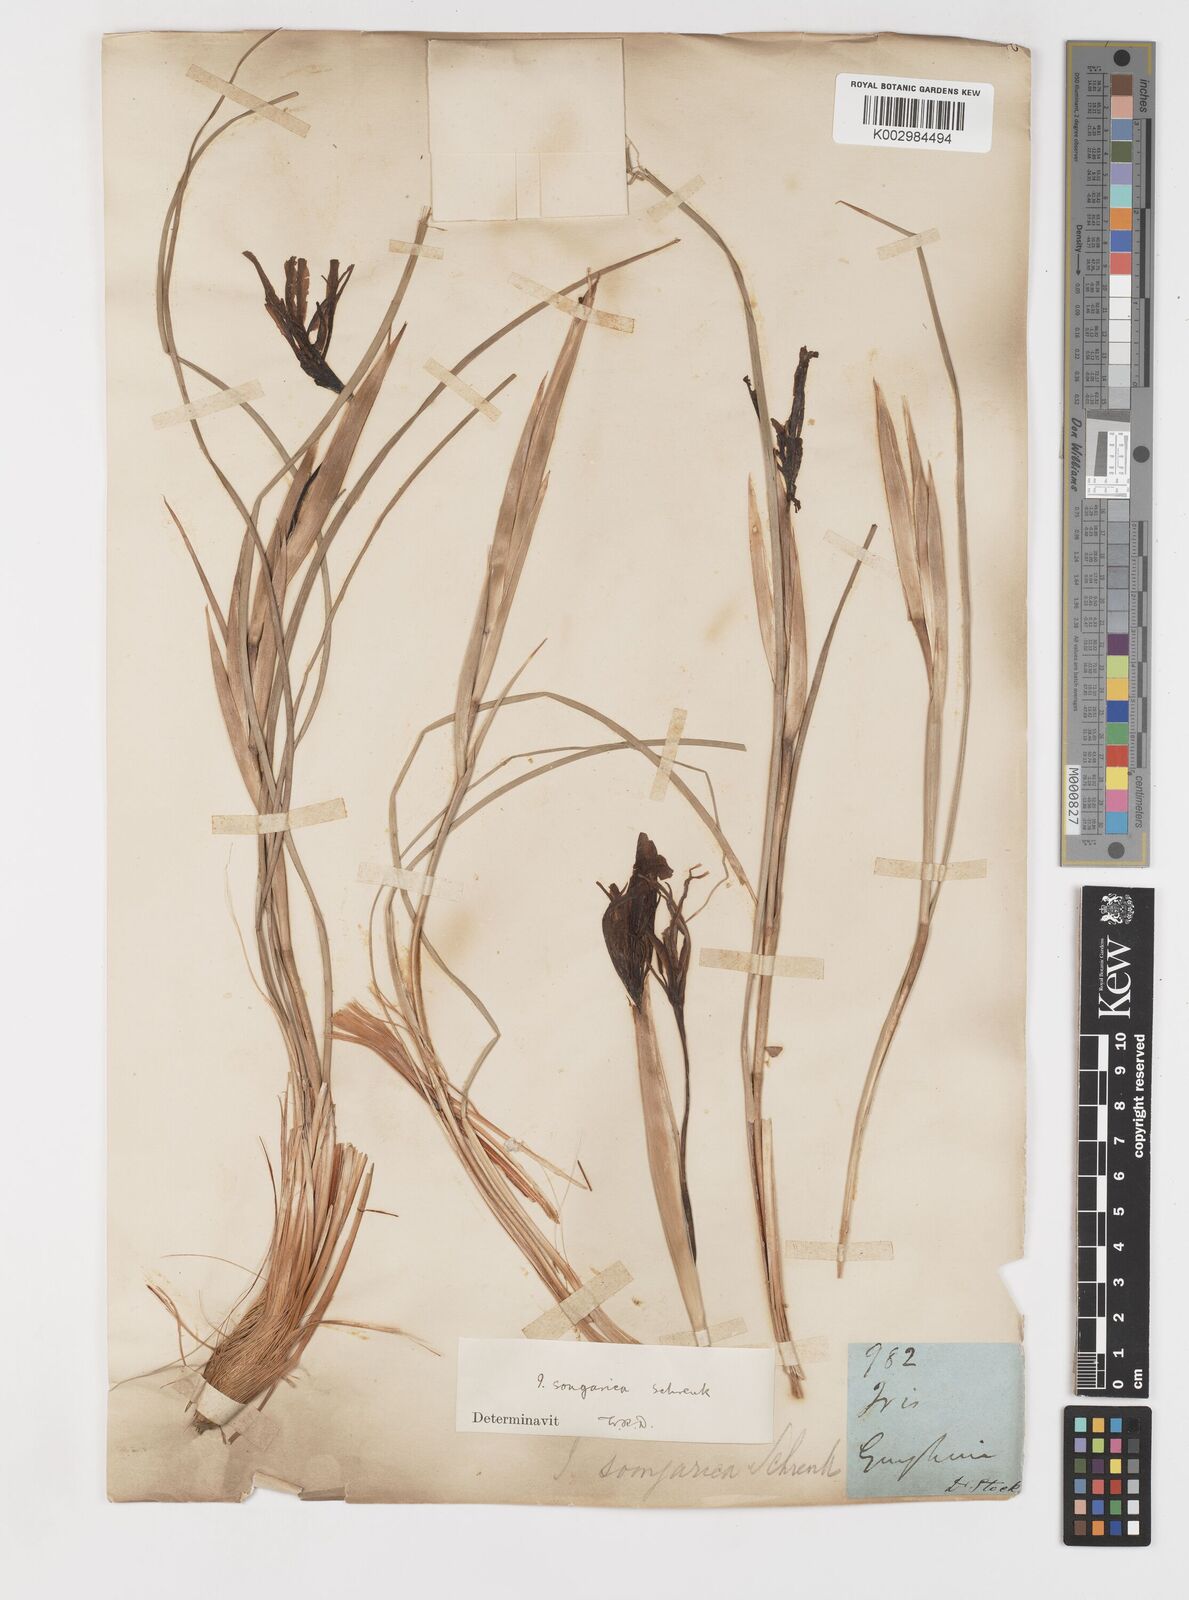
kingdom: Plantae
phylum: Tracheophyta
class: Liliopsida
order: Asparagales
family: Iridaceae
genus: Iris
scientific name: Iris songarica
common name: Songar iris
